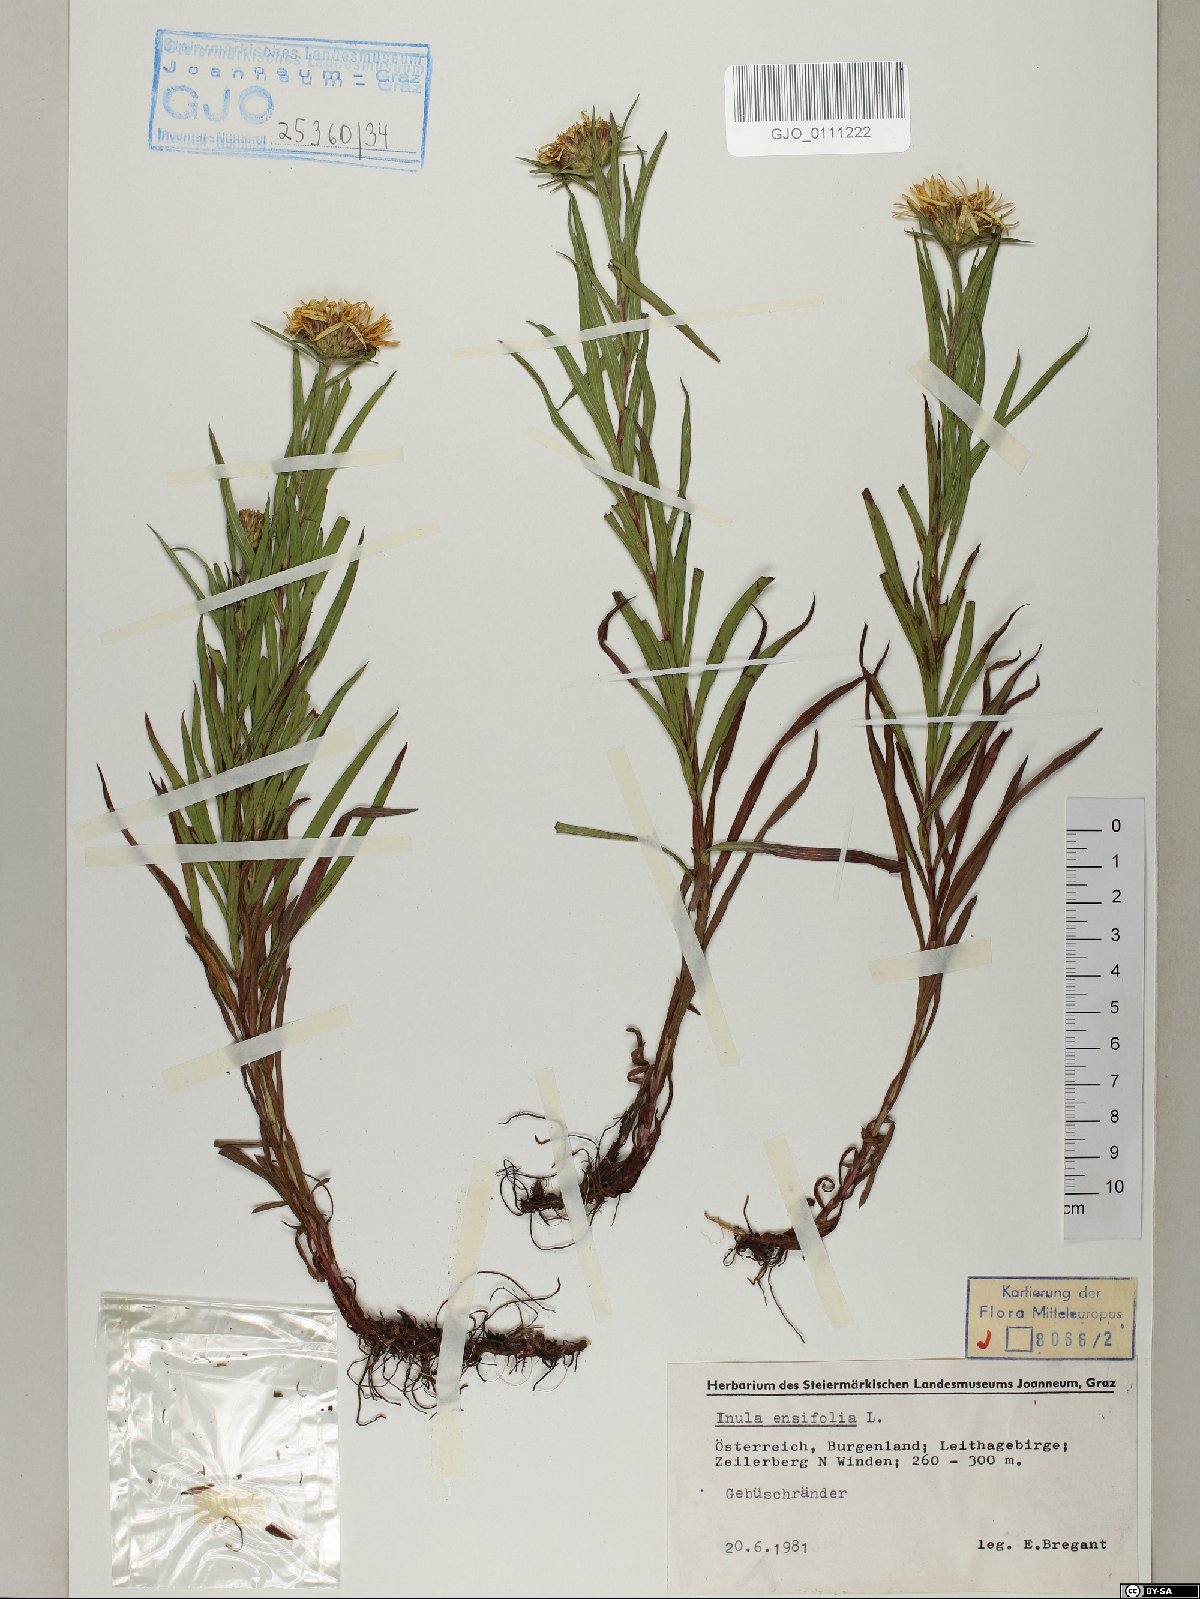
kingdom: Plantae
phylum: Tracheophyta
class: Magnoliopsida
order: Asterales
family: Asteraceae
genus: Pentanema
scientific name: Pentanema ensifolium
